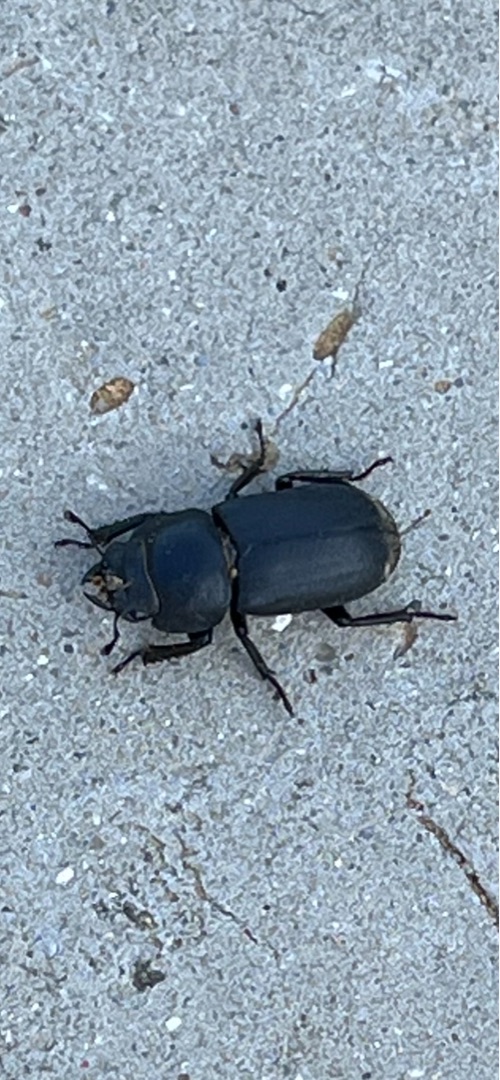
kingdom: Animalia
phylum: Arthropoda
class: Insecta
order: Coleoptera
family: Lucanidae
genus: Dorcus
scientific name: Dorcus parallelipipedus
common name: Bøghjort
